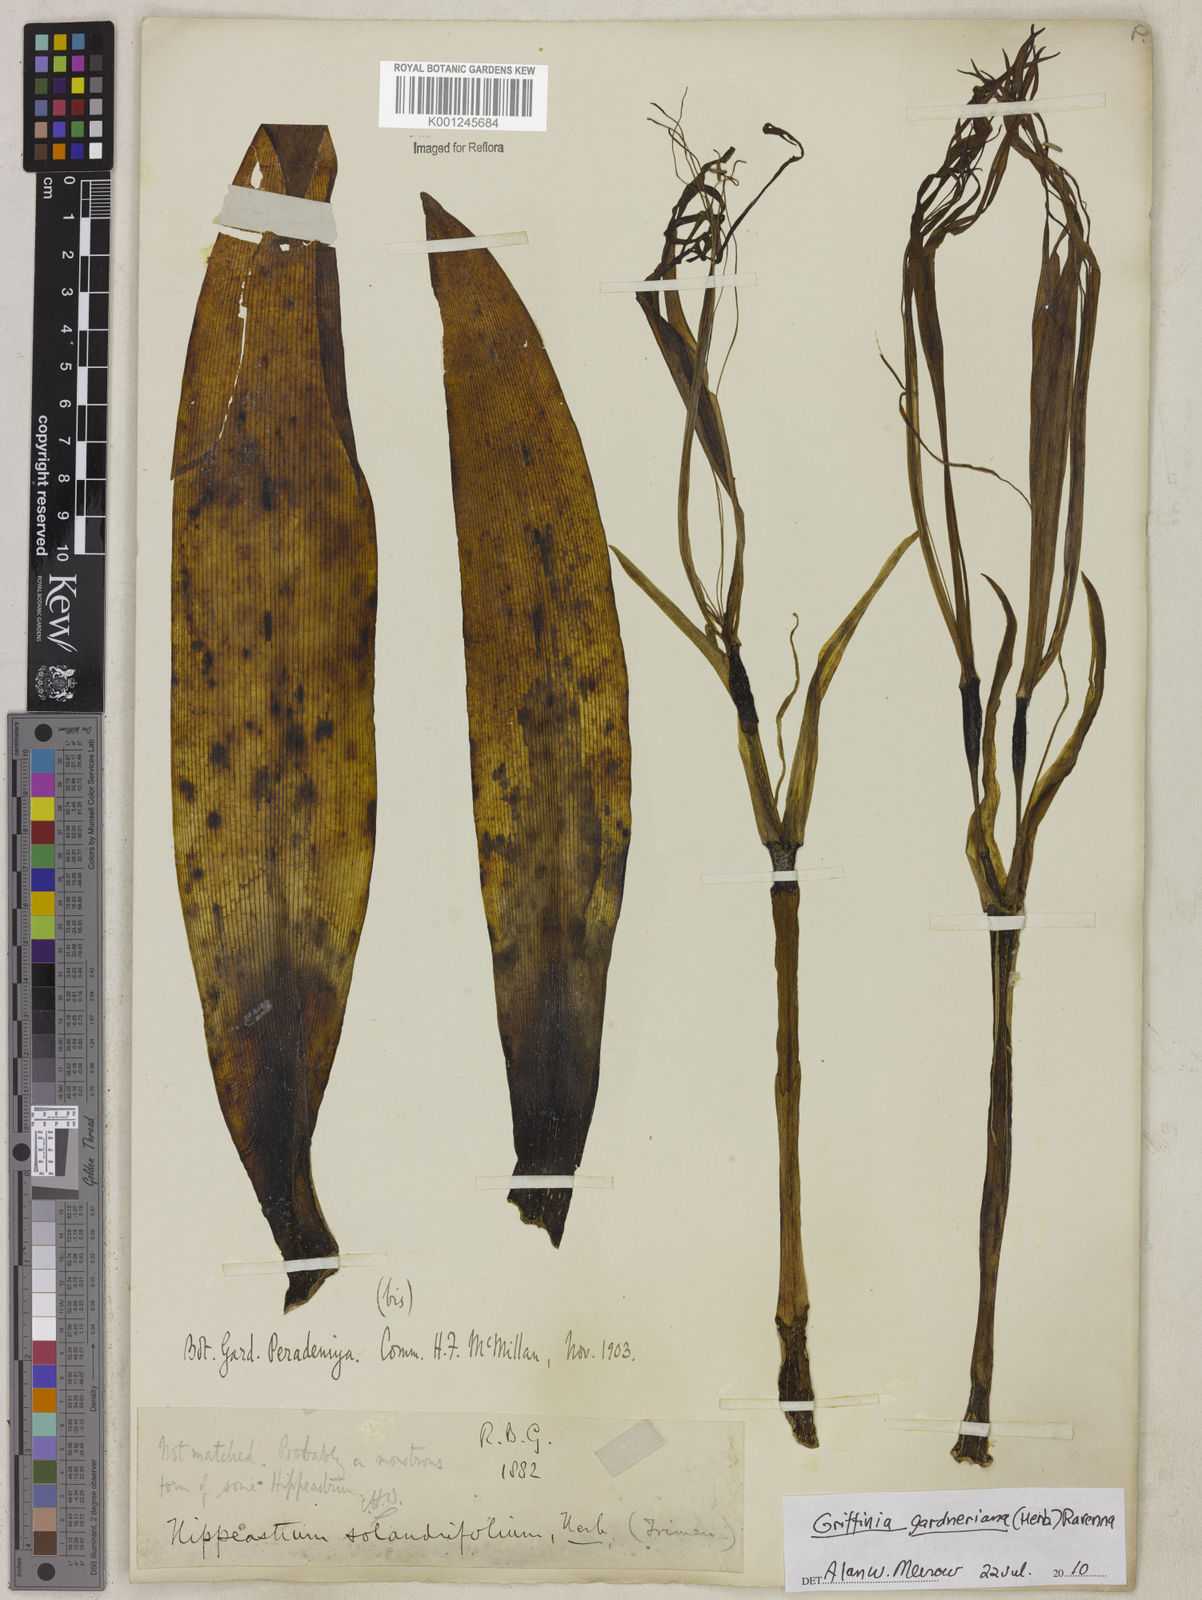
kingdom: Plantae
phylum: Tracheophyta
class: Liliopsida
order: Asparagales
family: Amaryllidaceae
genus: Griffinia
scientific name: Griffinia gardneriana
